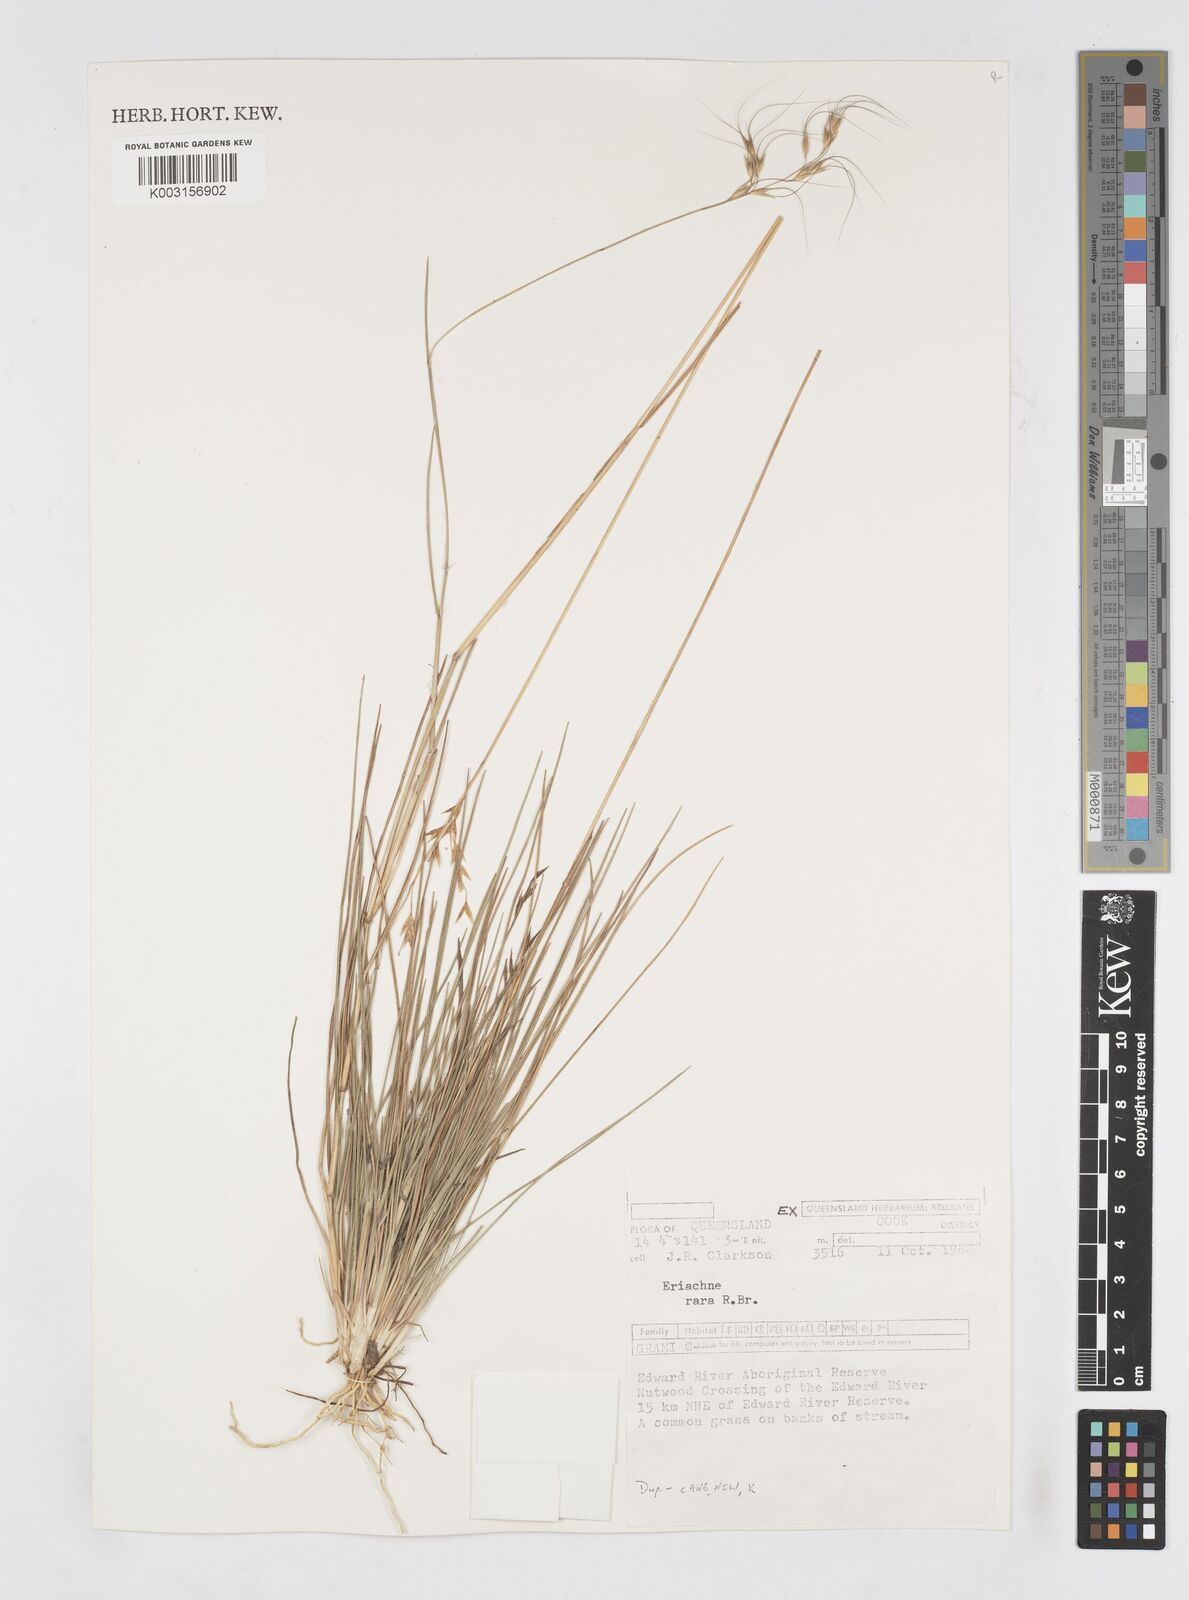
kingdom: Plantae
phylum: Tracheophyta
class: Liliopsida
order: Poales
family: Poaceae
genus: Eriachne
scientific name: Eriachne rara
